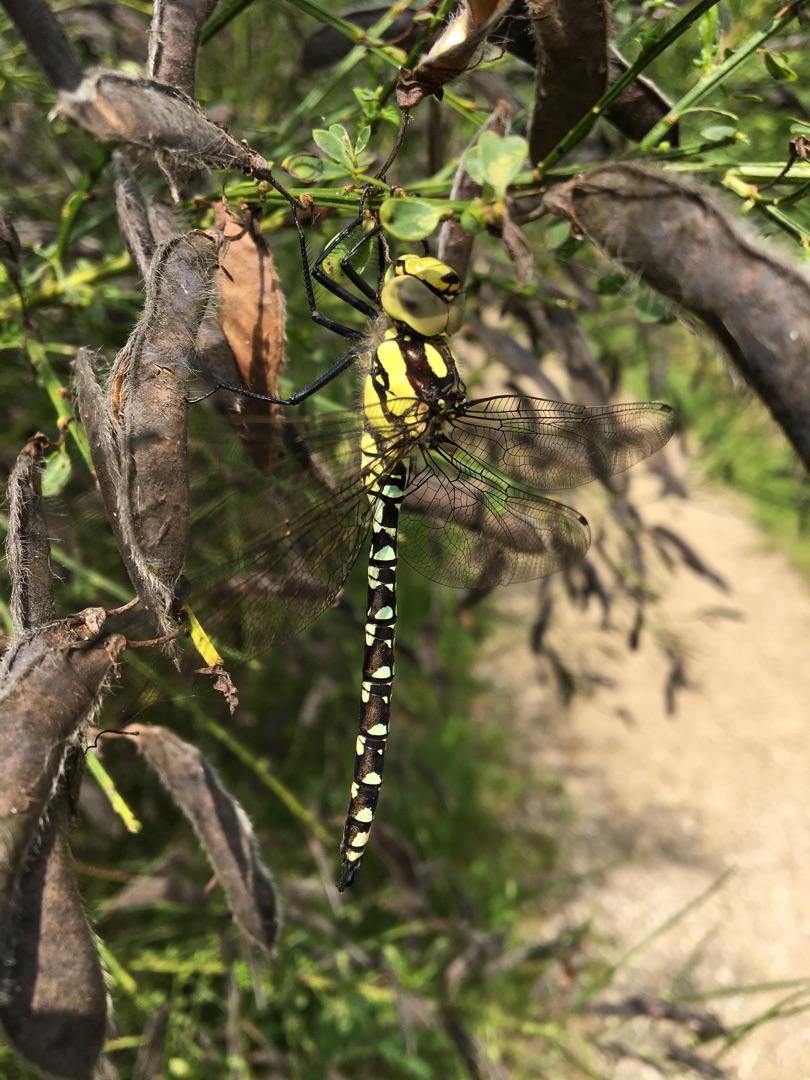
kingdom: Animalia
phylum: Arthropoda
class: Insecta
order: Odonata
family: Aeshnidae
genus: Aeshna
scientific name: Aeshna cyanea
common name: Blå mosaikguldsmed
